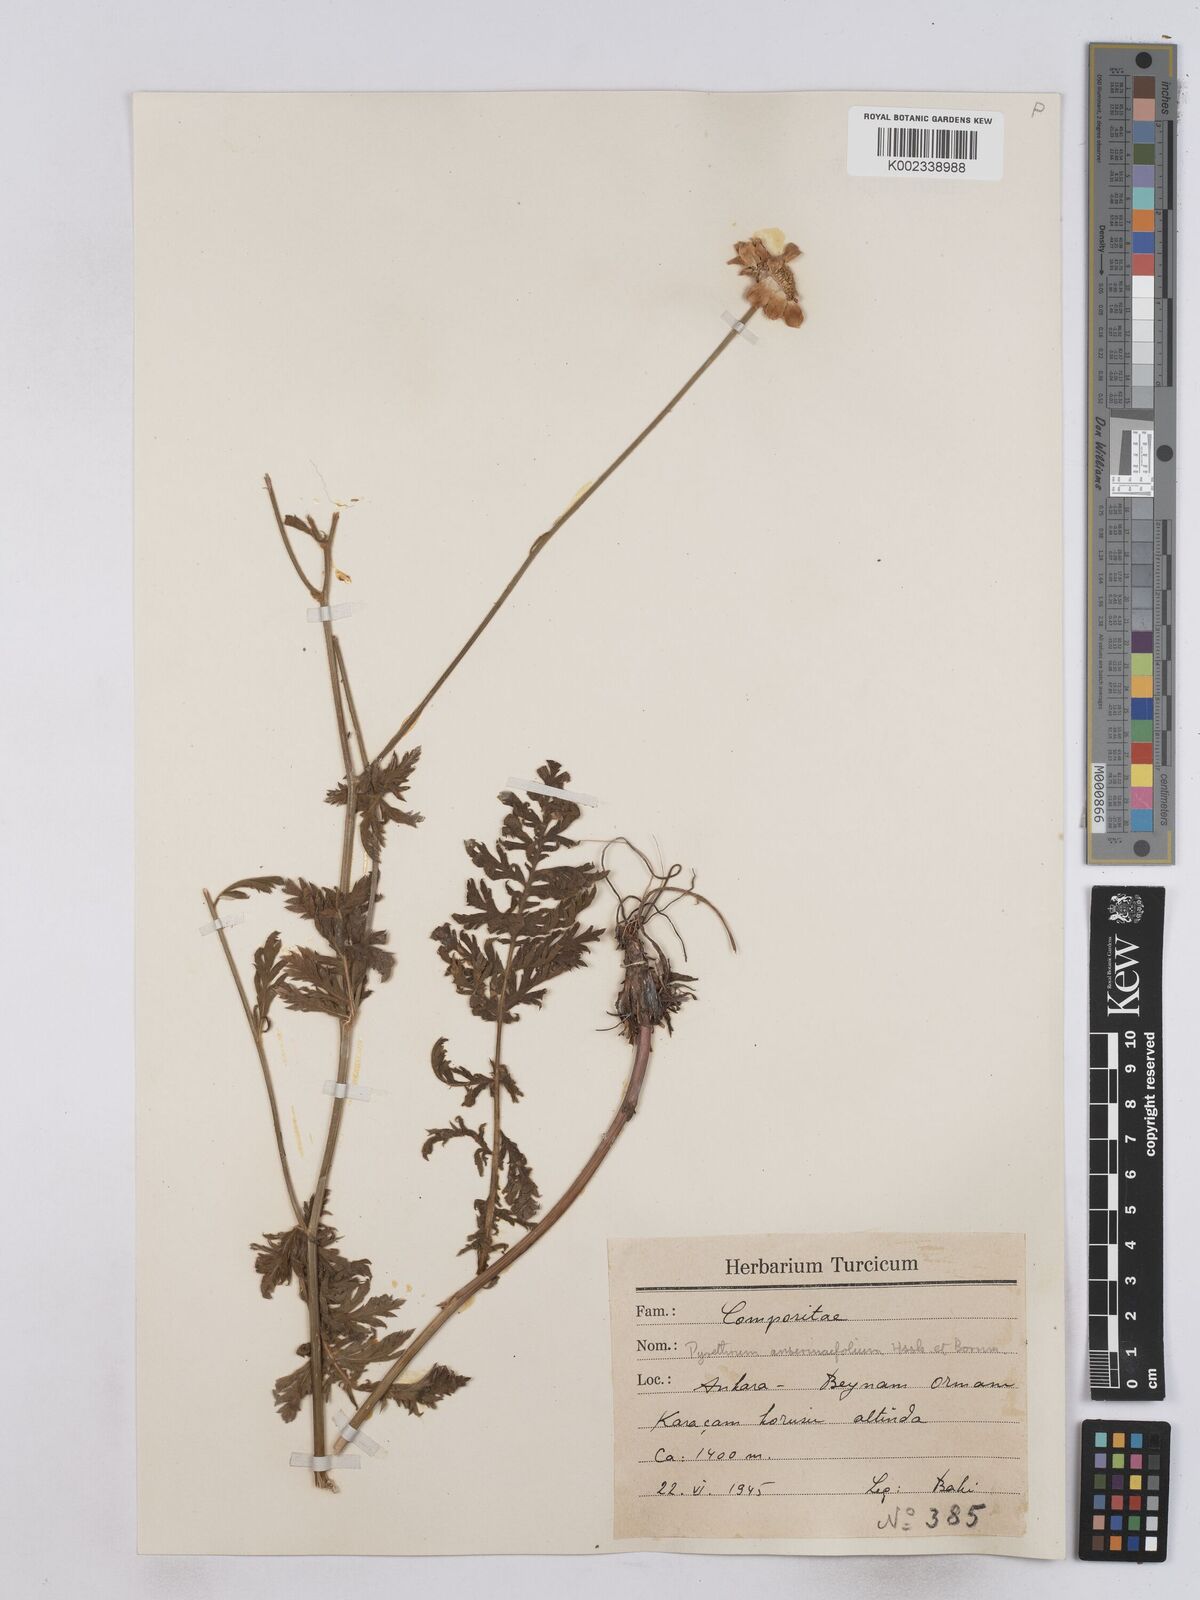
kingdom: Plantae
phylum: Tracheophyta
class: Magnoliopsida
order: Asterales
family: Asteraceae
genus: Tanacetum
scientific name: Tanacetum
